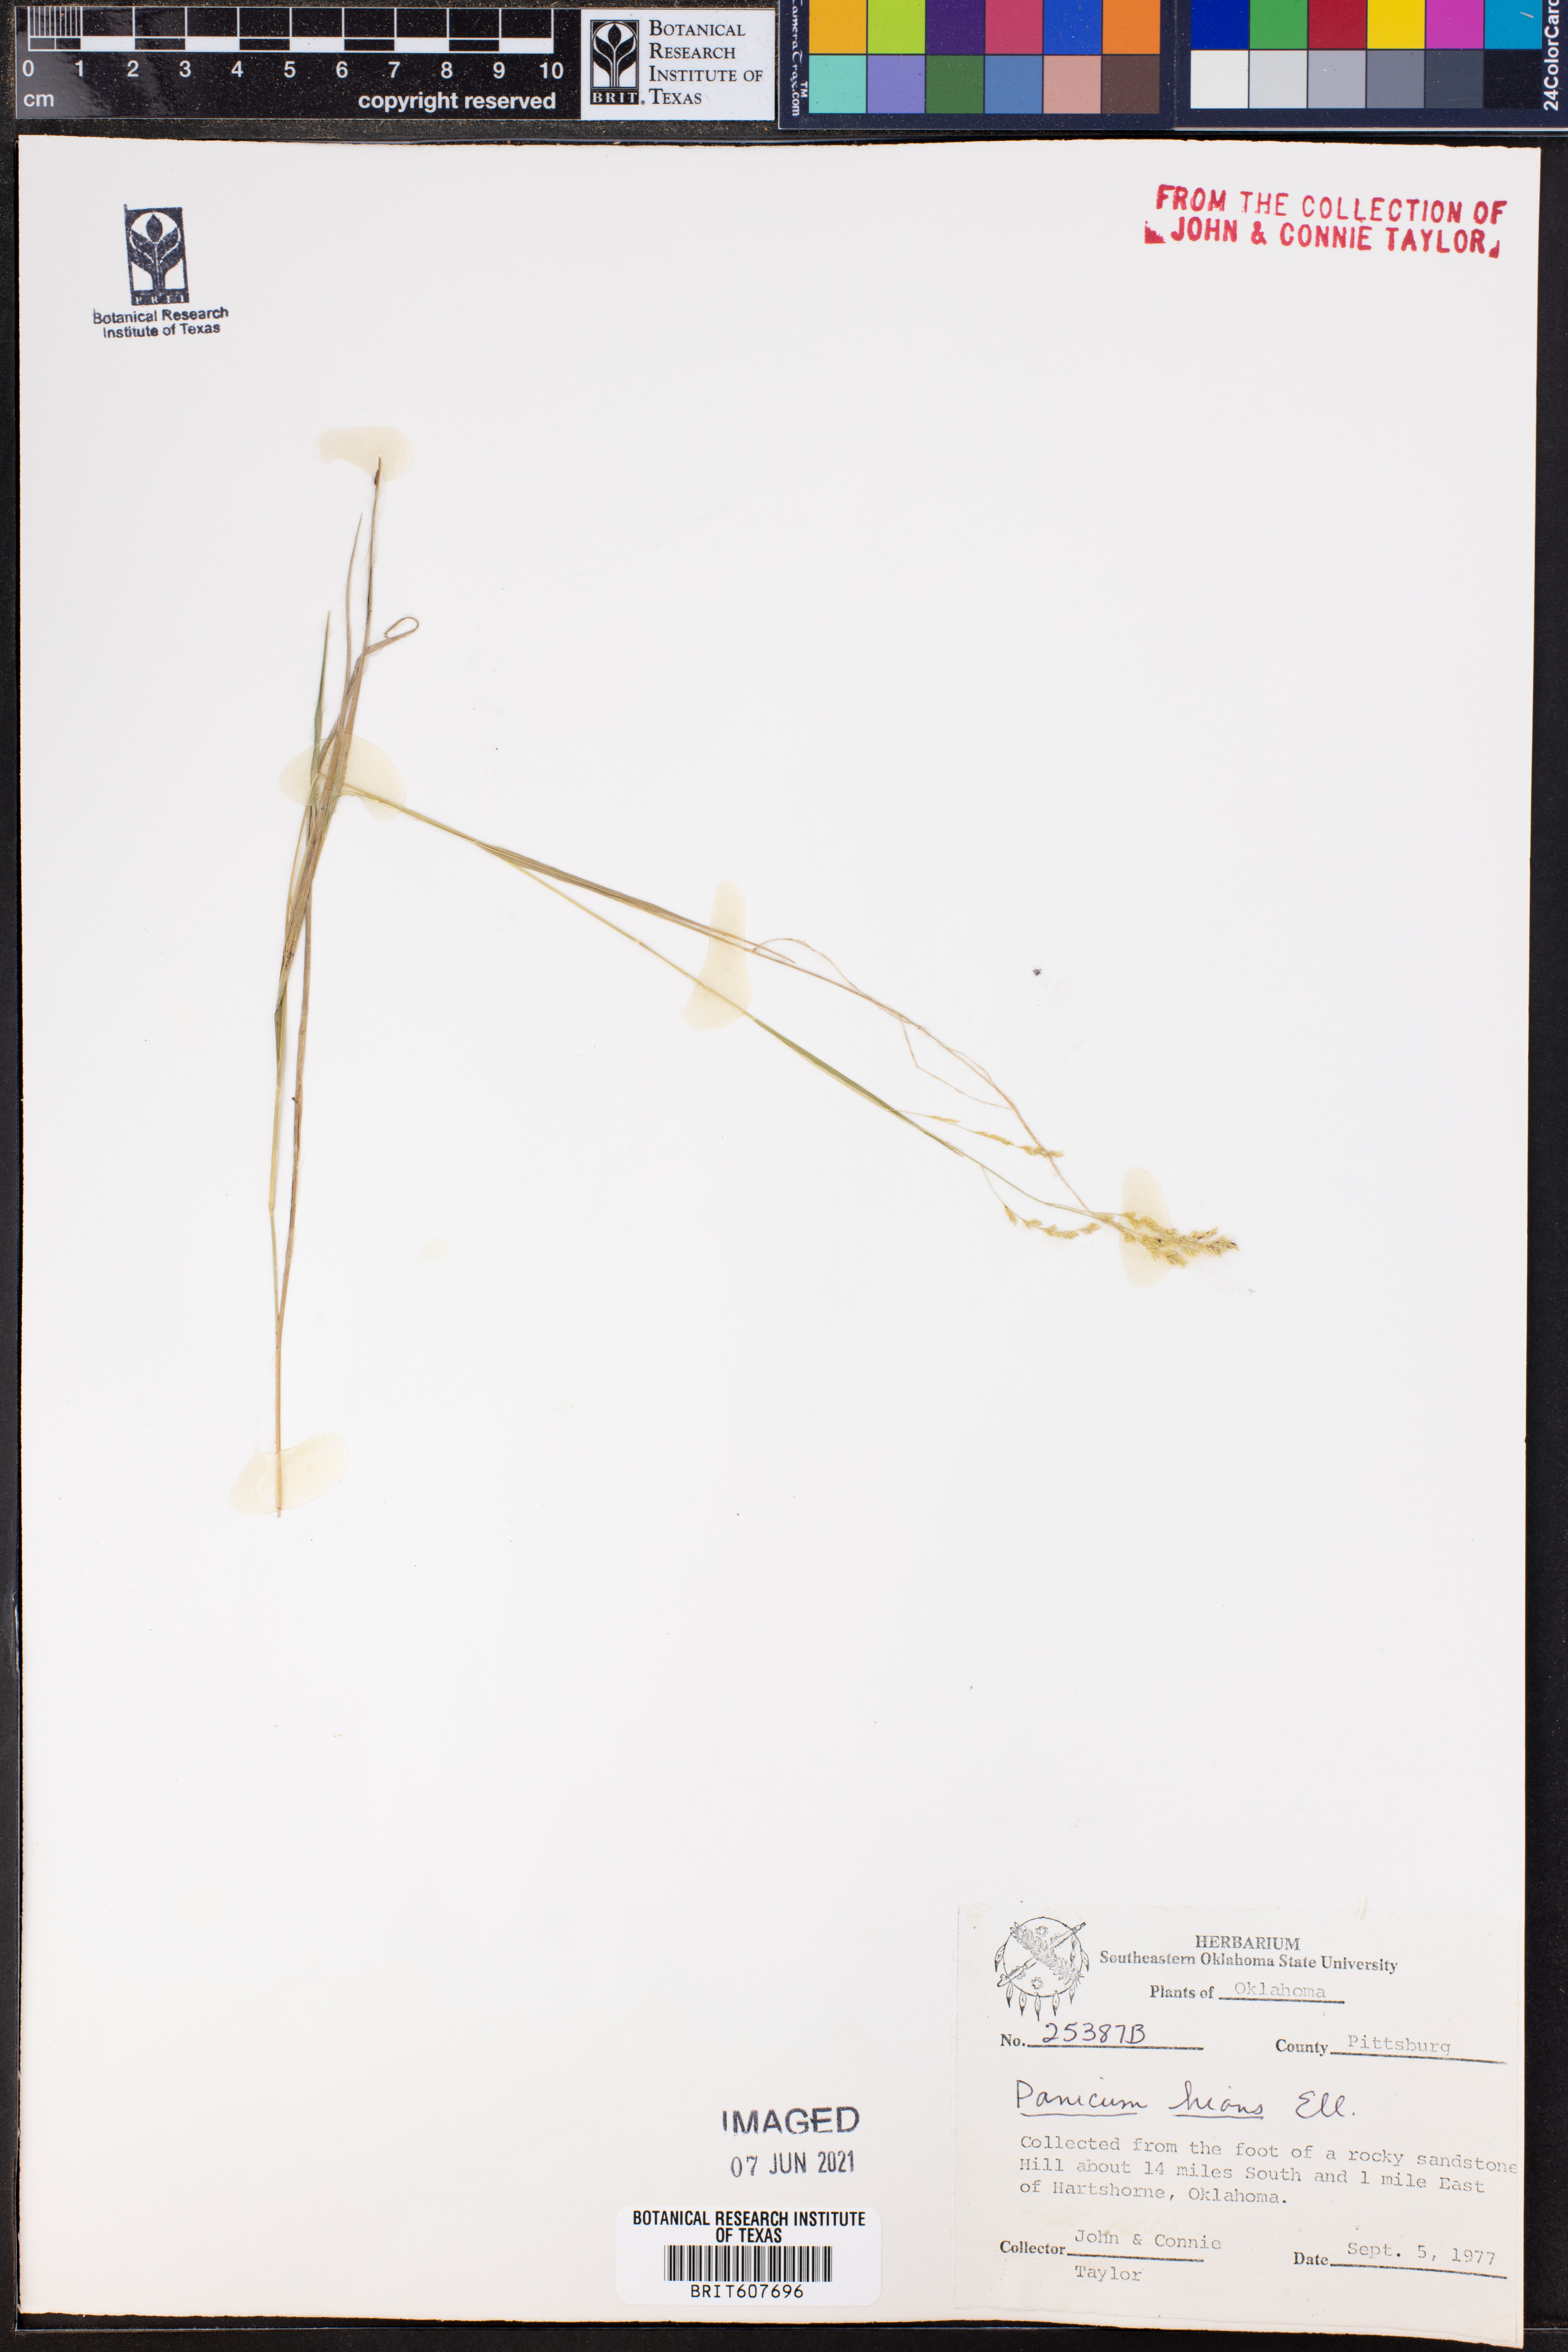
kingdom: Plantae
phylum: Tracheophyta
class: Liliopsida
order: Poales
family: Poaceae
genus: Coleataenia
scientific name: Coleataenia stenodes
